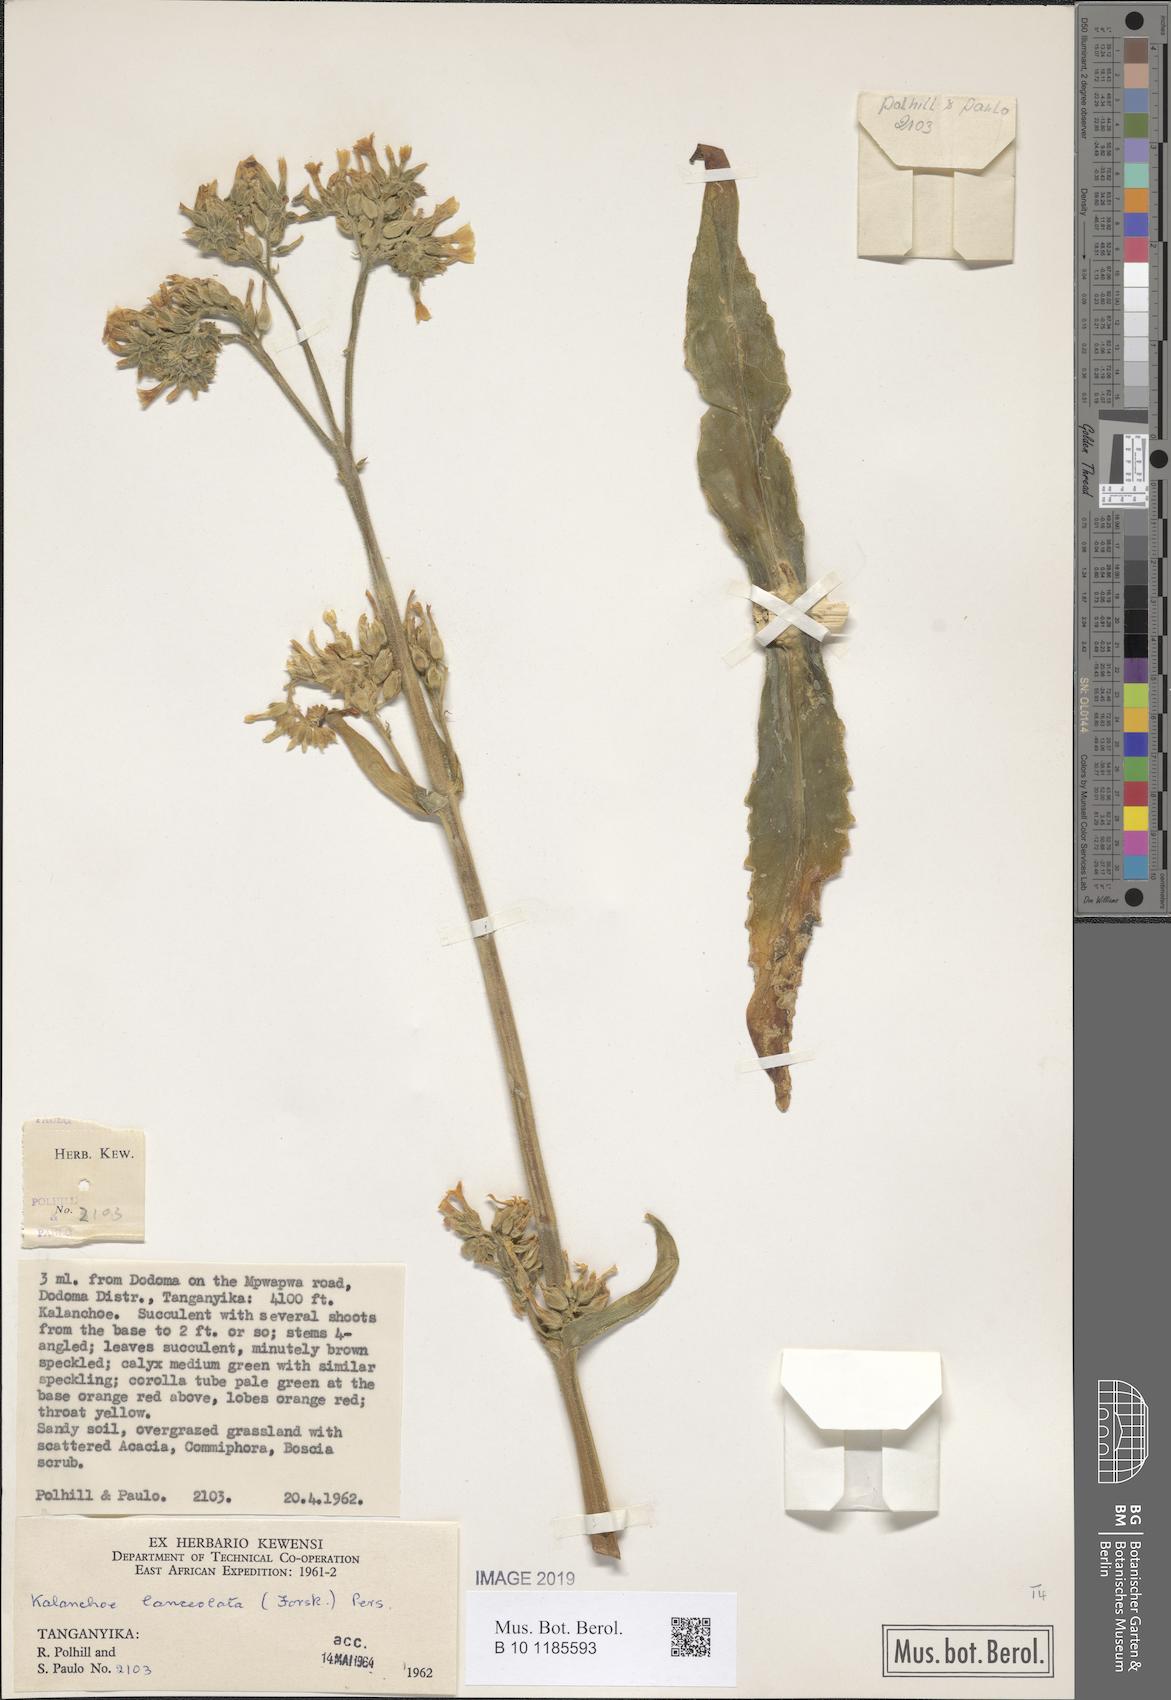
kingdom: Plantae
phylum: Tracheophyta
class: Magnoliopsida
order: Saxifragales
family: Crassulaceae
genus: Kalanchoe
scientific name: Kalanchoe lanceolata
